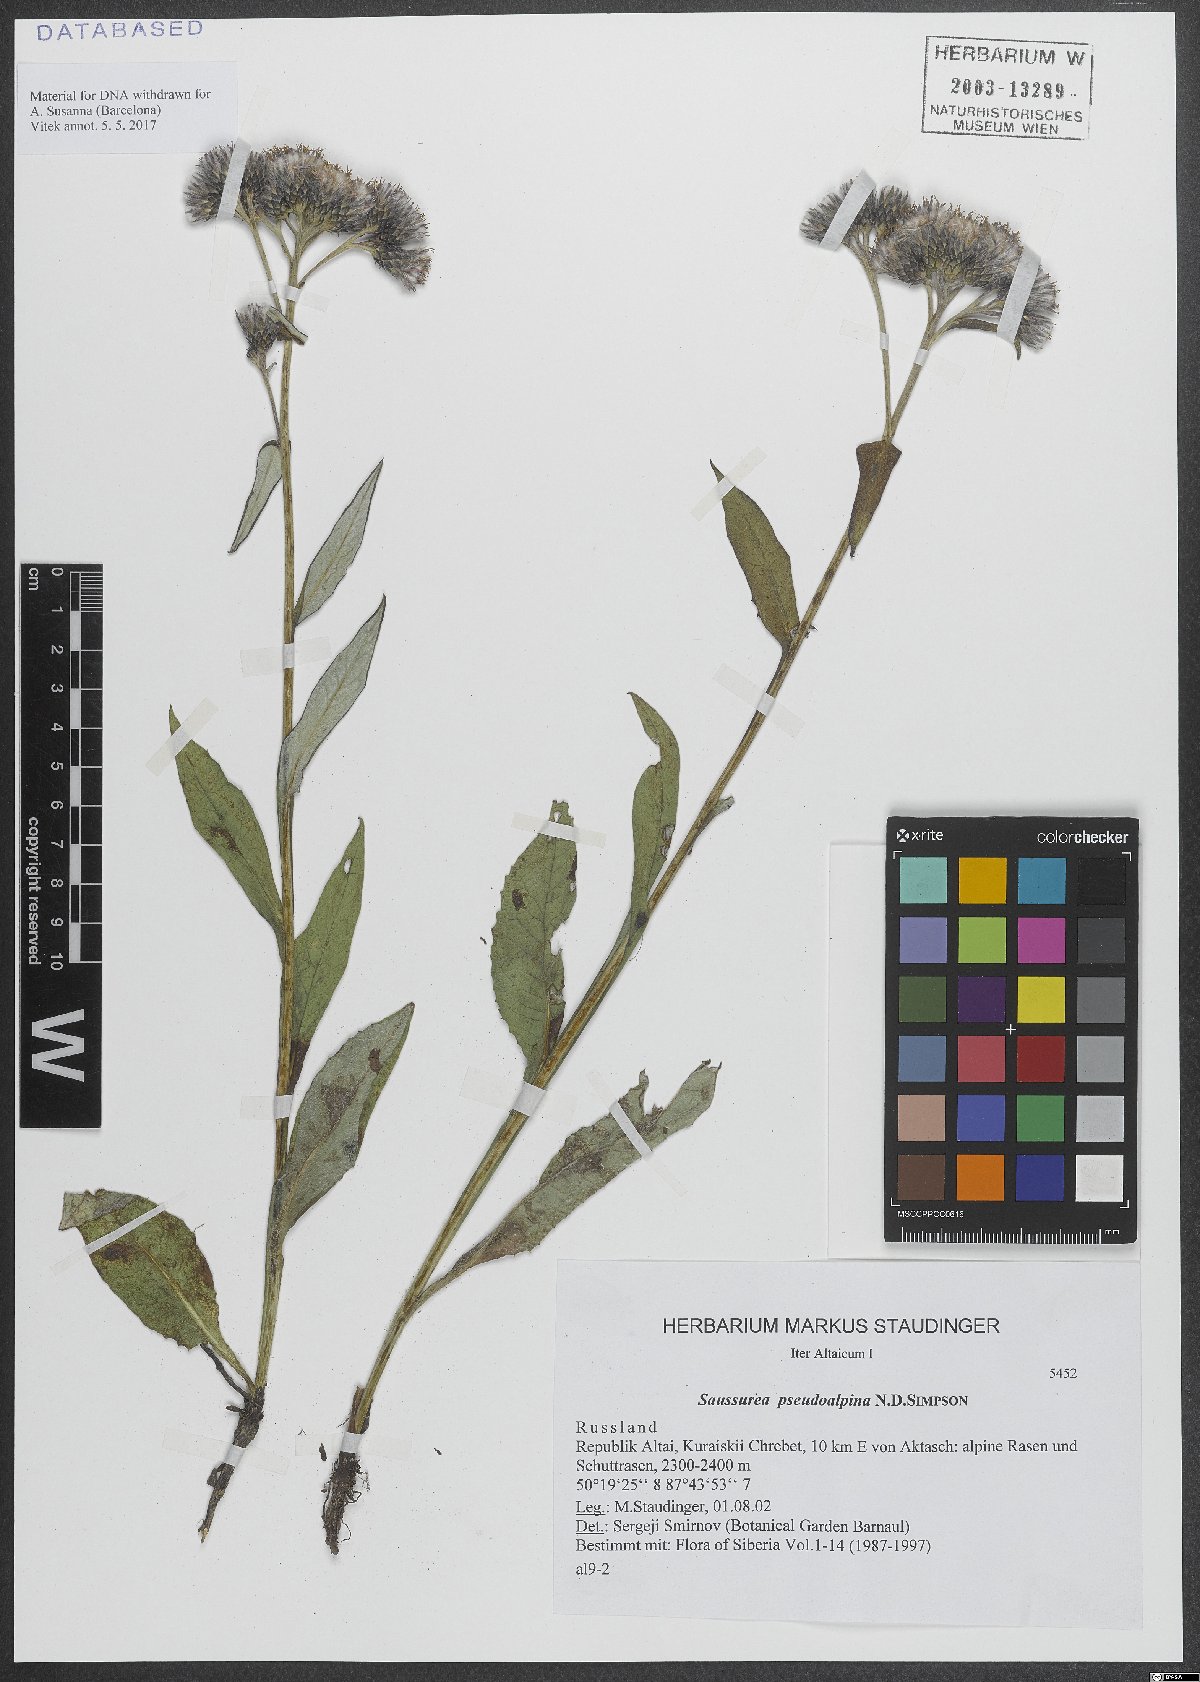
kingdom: Plantae
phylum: Tracheophyta
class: Magnoliopsida
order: Asterales
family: Asteraceae
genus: Saussurea
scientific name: Saussurea pseudoalpina
